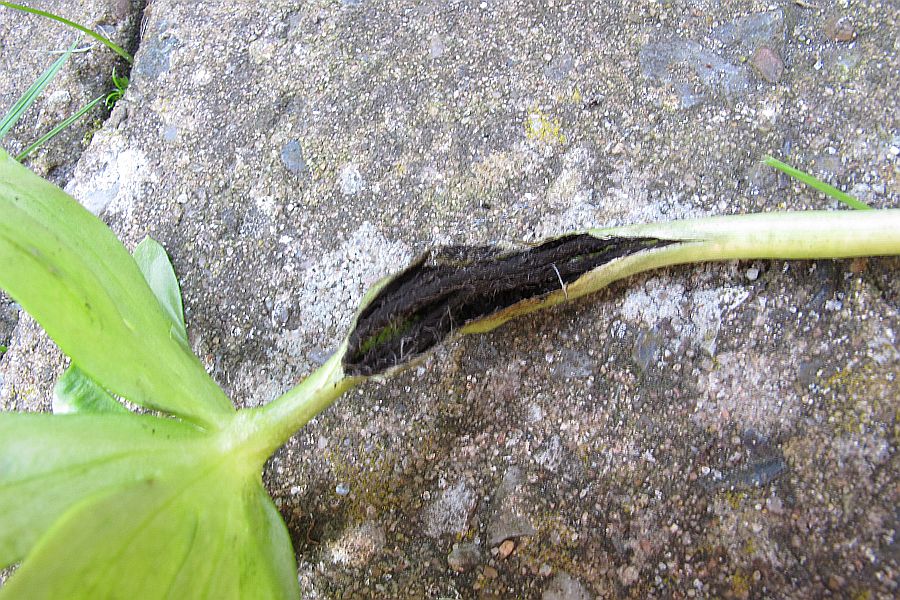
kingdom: Fungi
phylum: Basidiomycota
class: Ustilaginomycetes
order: Urocystidales
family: Urocystidaceae
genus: Urocystis
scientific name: Urocystis eranthidis
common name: erantis-brand
